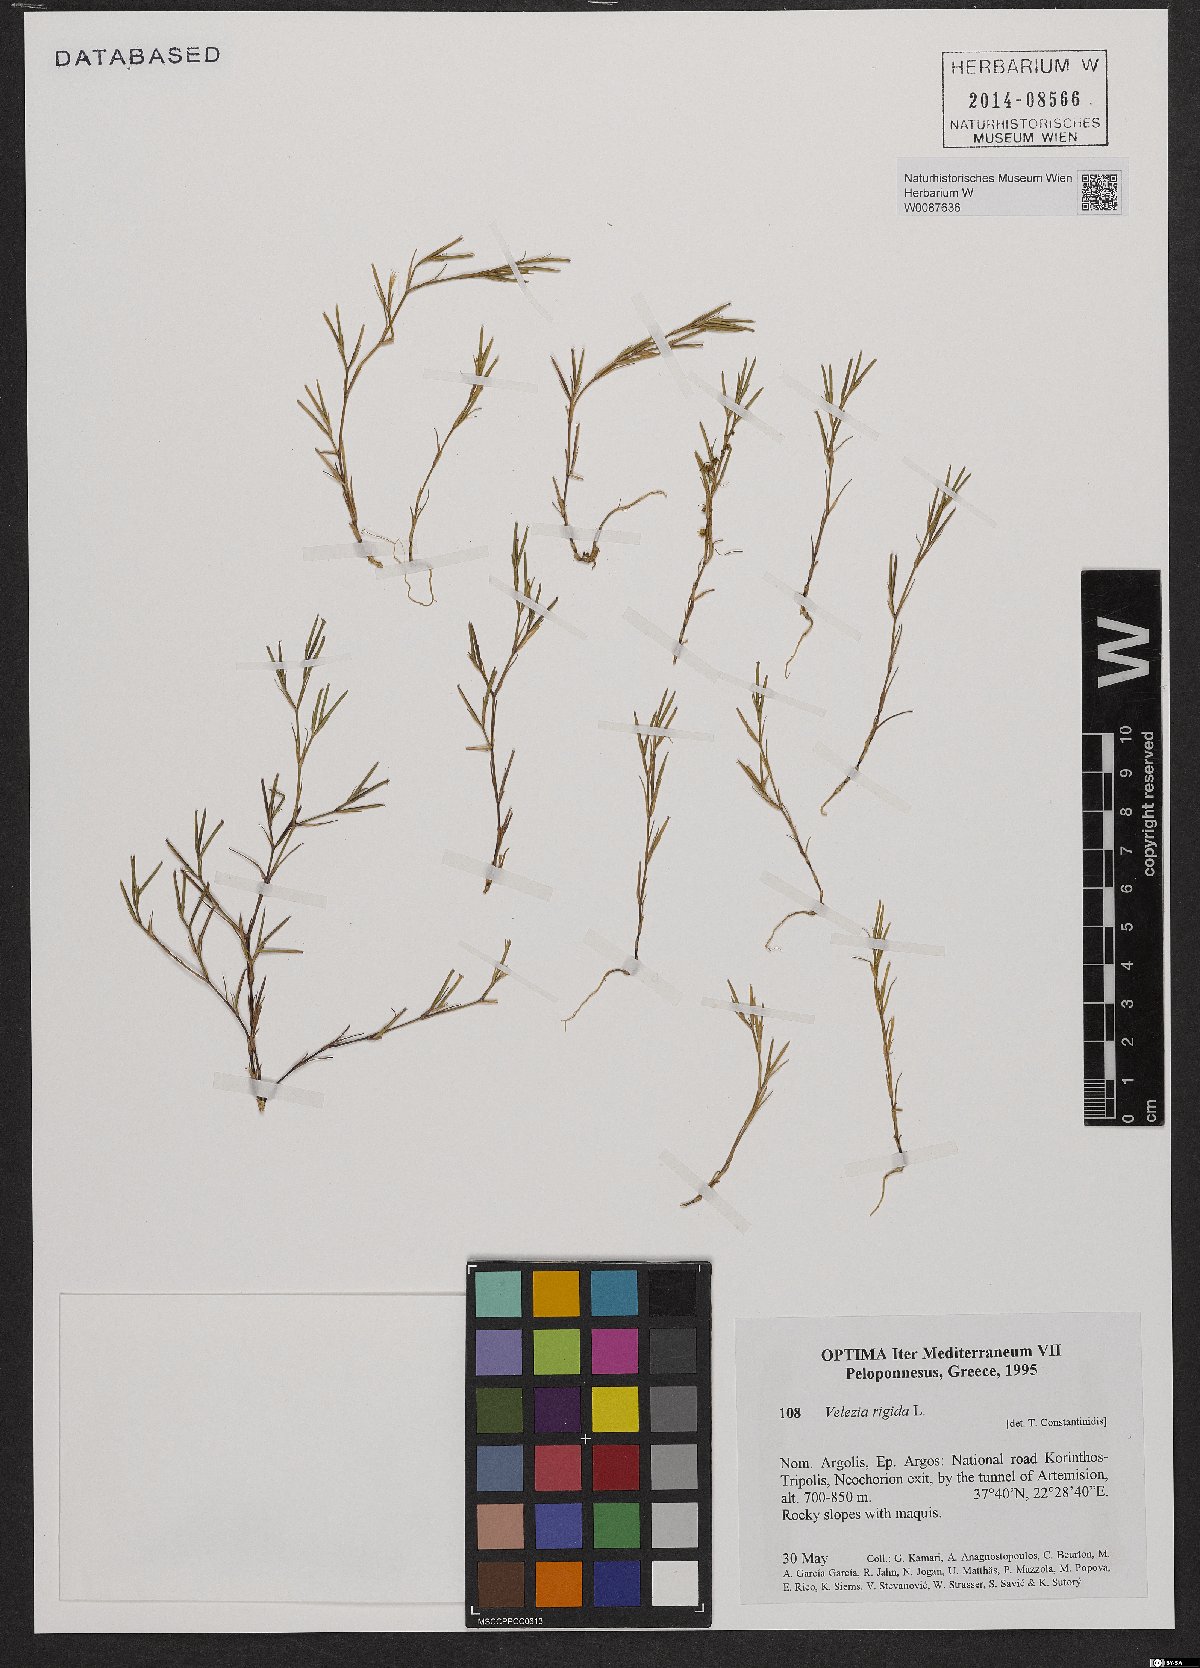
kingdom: Plantae
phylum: Tracheophyta
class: Magnoliopsida
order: Caryophyllales
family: Caryophyllaceae
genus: Dianthus
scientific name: Dianthus nudiflorus
